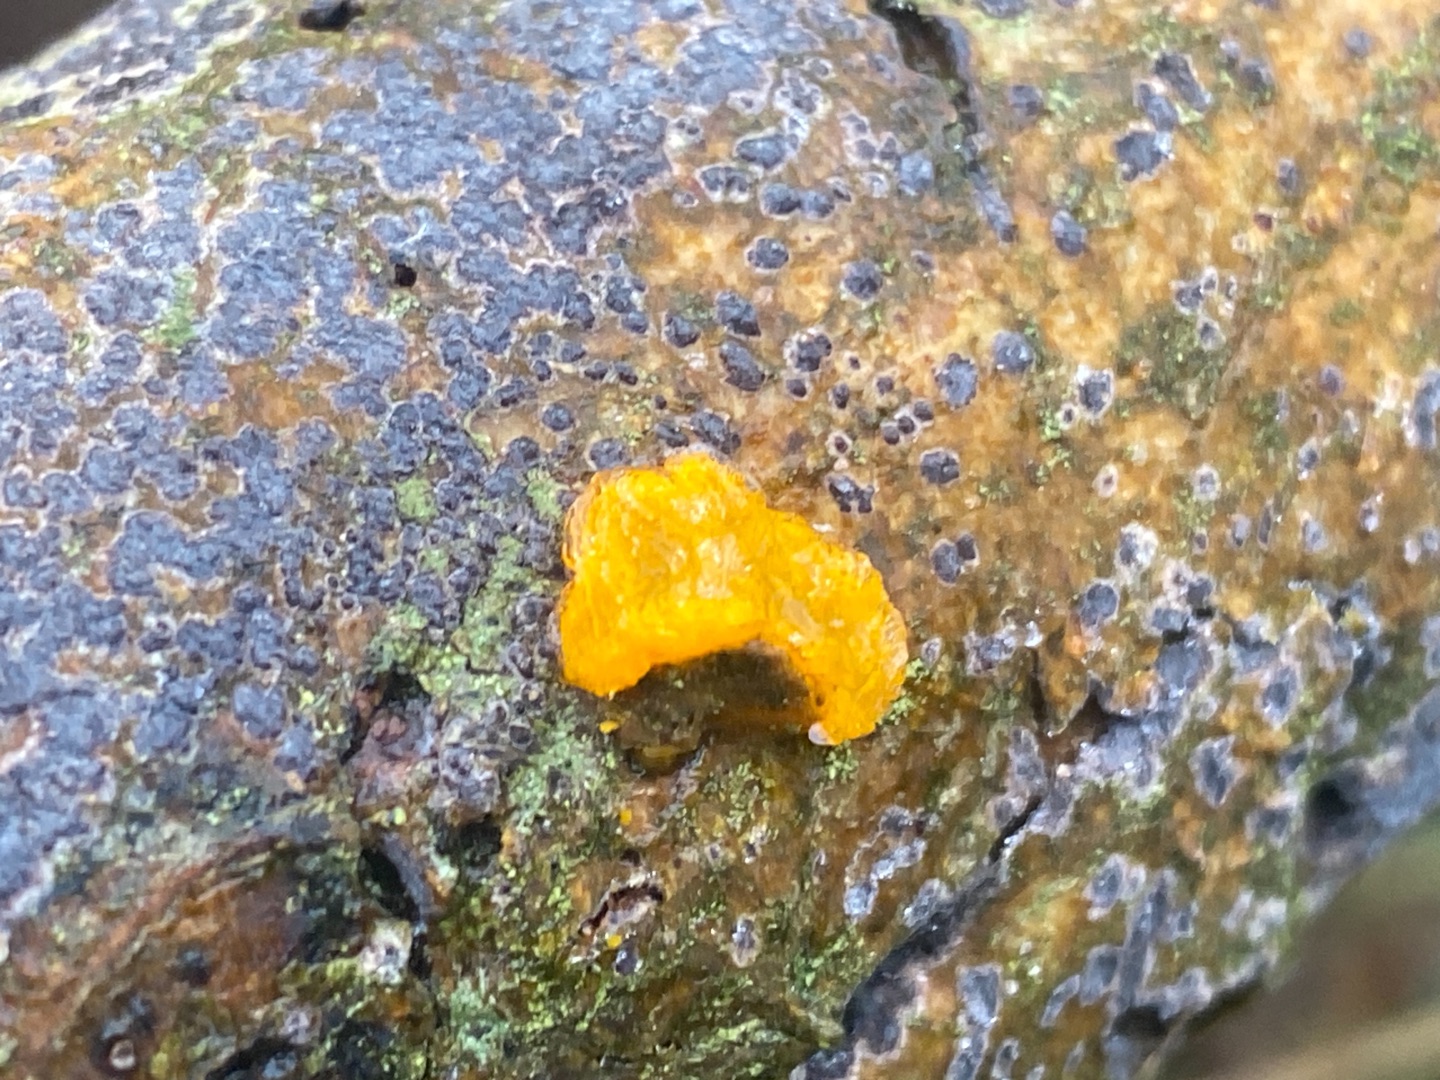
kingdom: Fungi
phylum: Basidiomycota
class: Tremellomycetes
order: Tremellales
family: Tremellaceae
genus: Tremella
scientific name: Tremella mesenterica
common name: Gul bævresvamp
